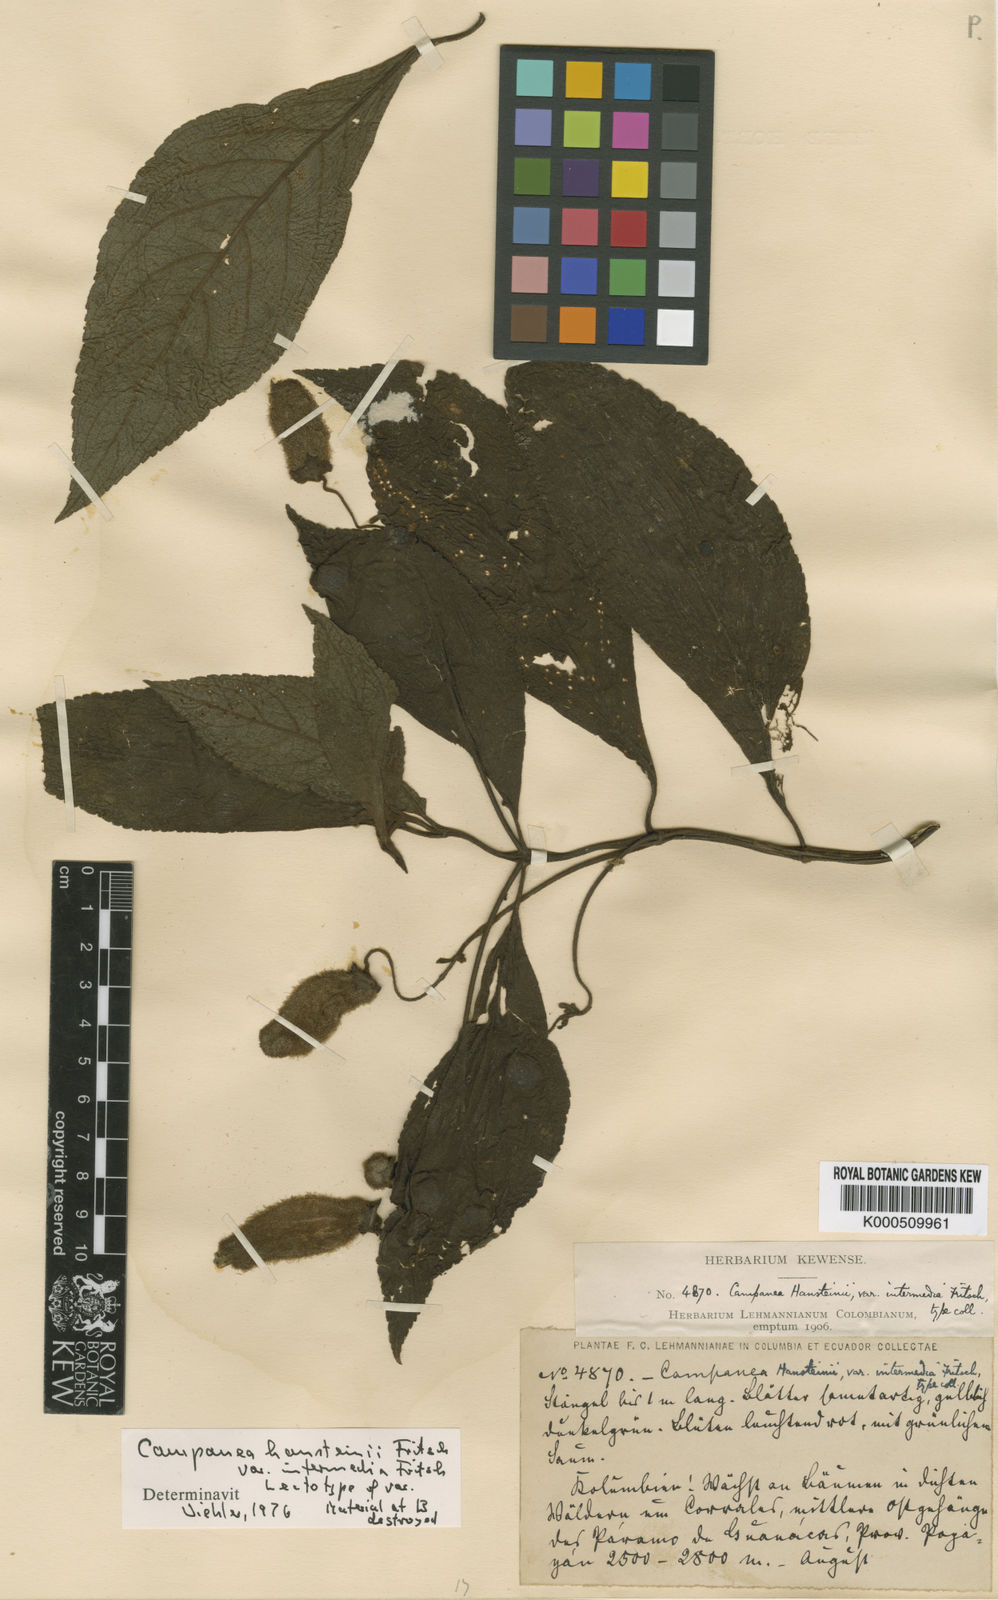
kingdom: Plantae
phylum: Tracheophyta
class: Magnoliopsida
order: Lamiales
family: Gesneriaceae
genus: Kohleria
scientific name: Kohleria
